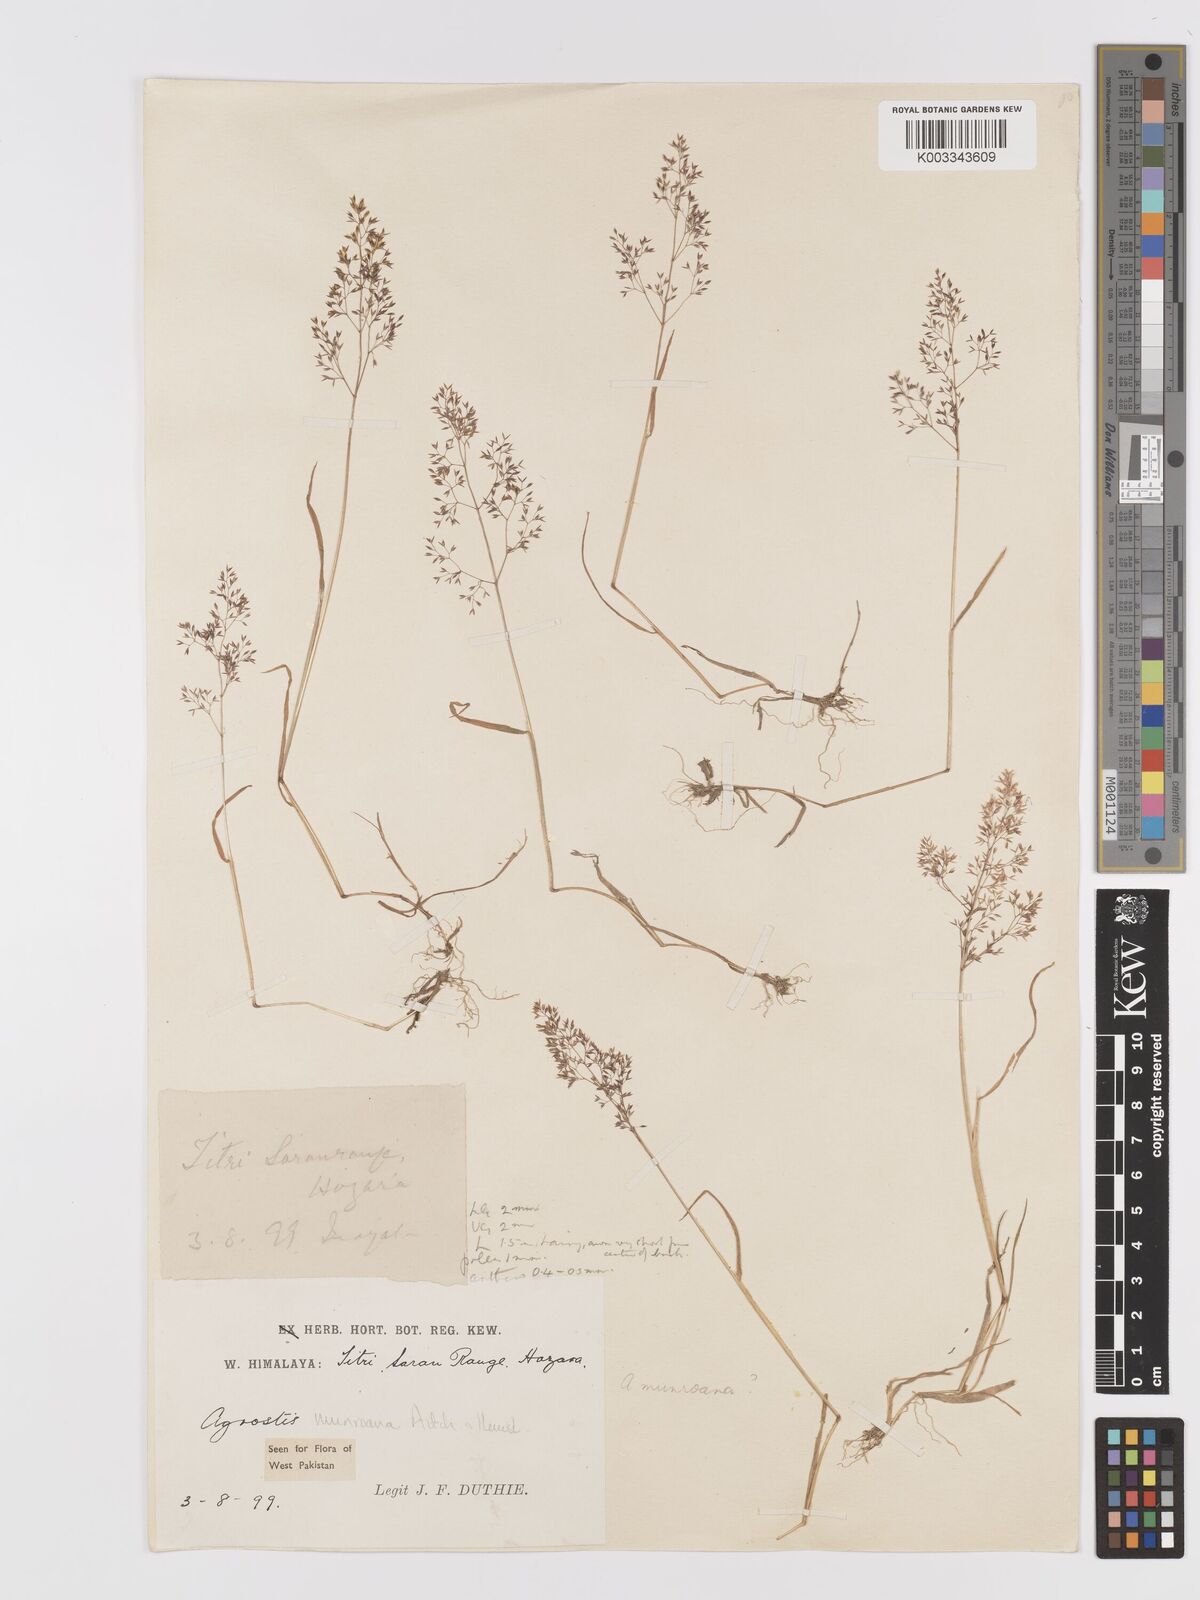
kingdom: Plantae
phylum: Tracheophyta
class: Liliopsida
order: Poales
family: Poaceae
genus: Agrostis
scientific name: Agrostis munroana
